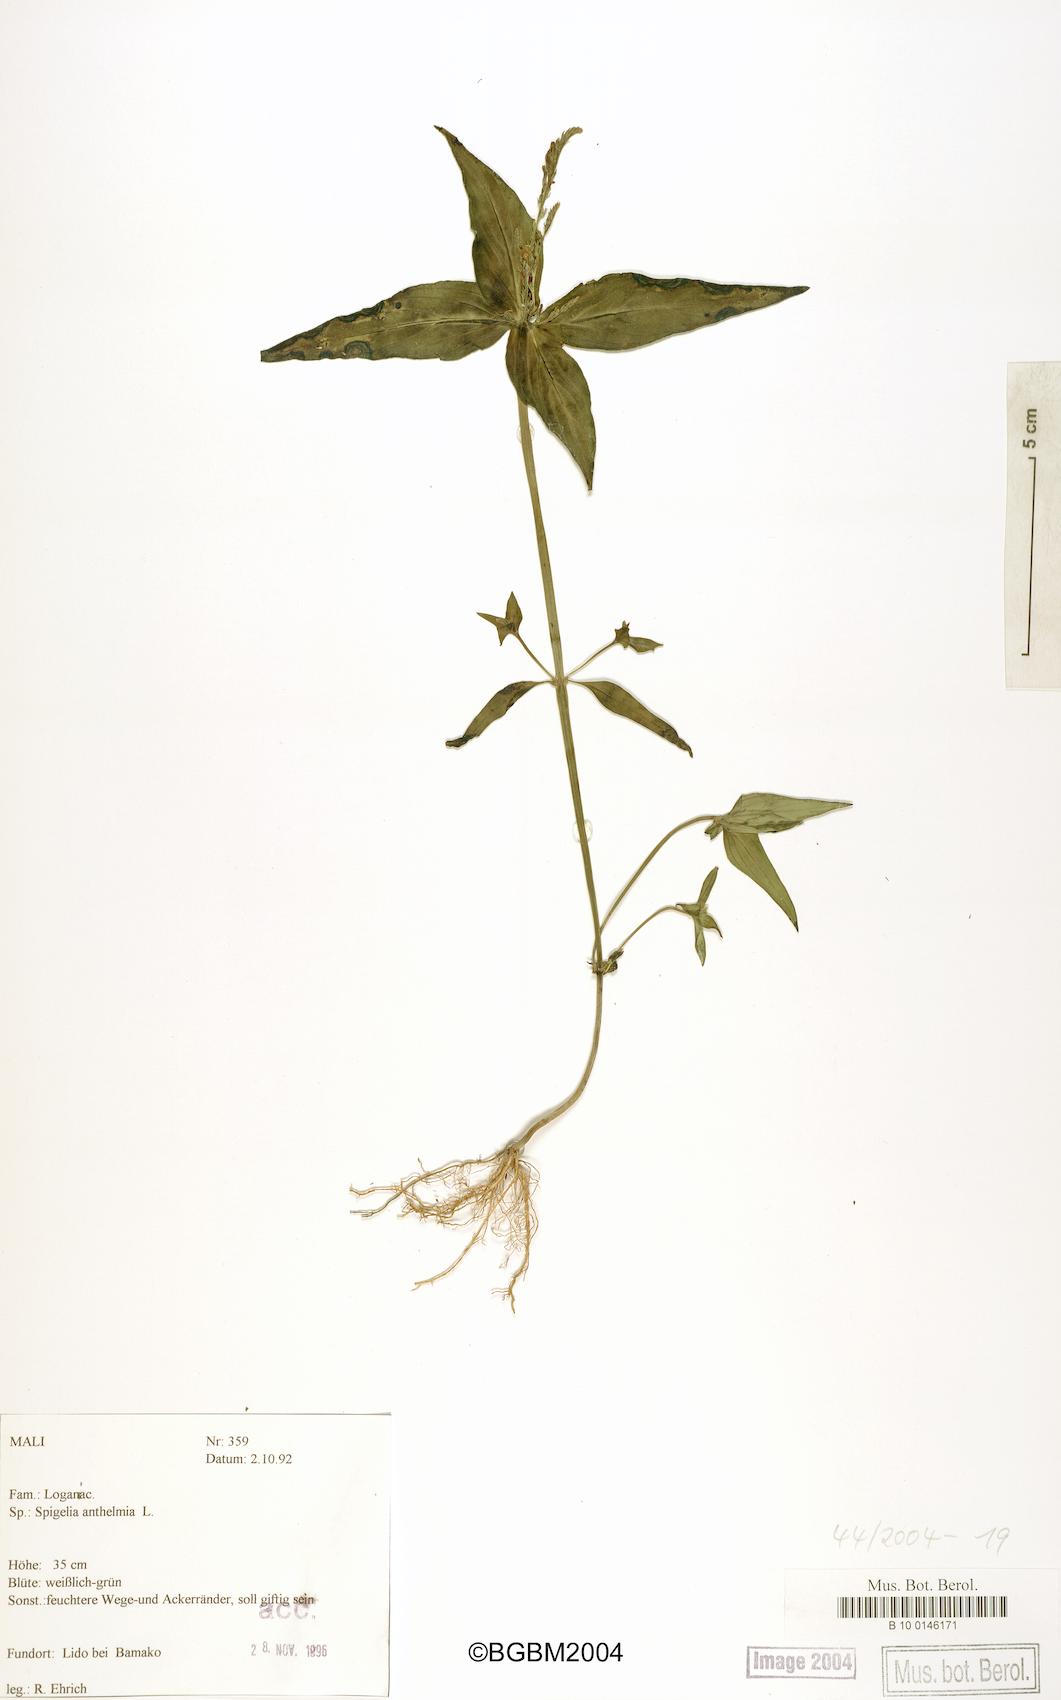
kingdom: Plantae
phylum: Tracheophyta
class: Magnoliopsida
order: Gentianales
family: Loganiaceae
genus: Spigelia
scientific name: Spigelia anthelmia
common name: West indian-pink
